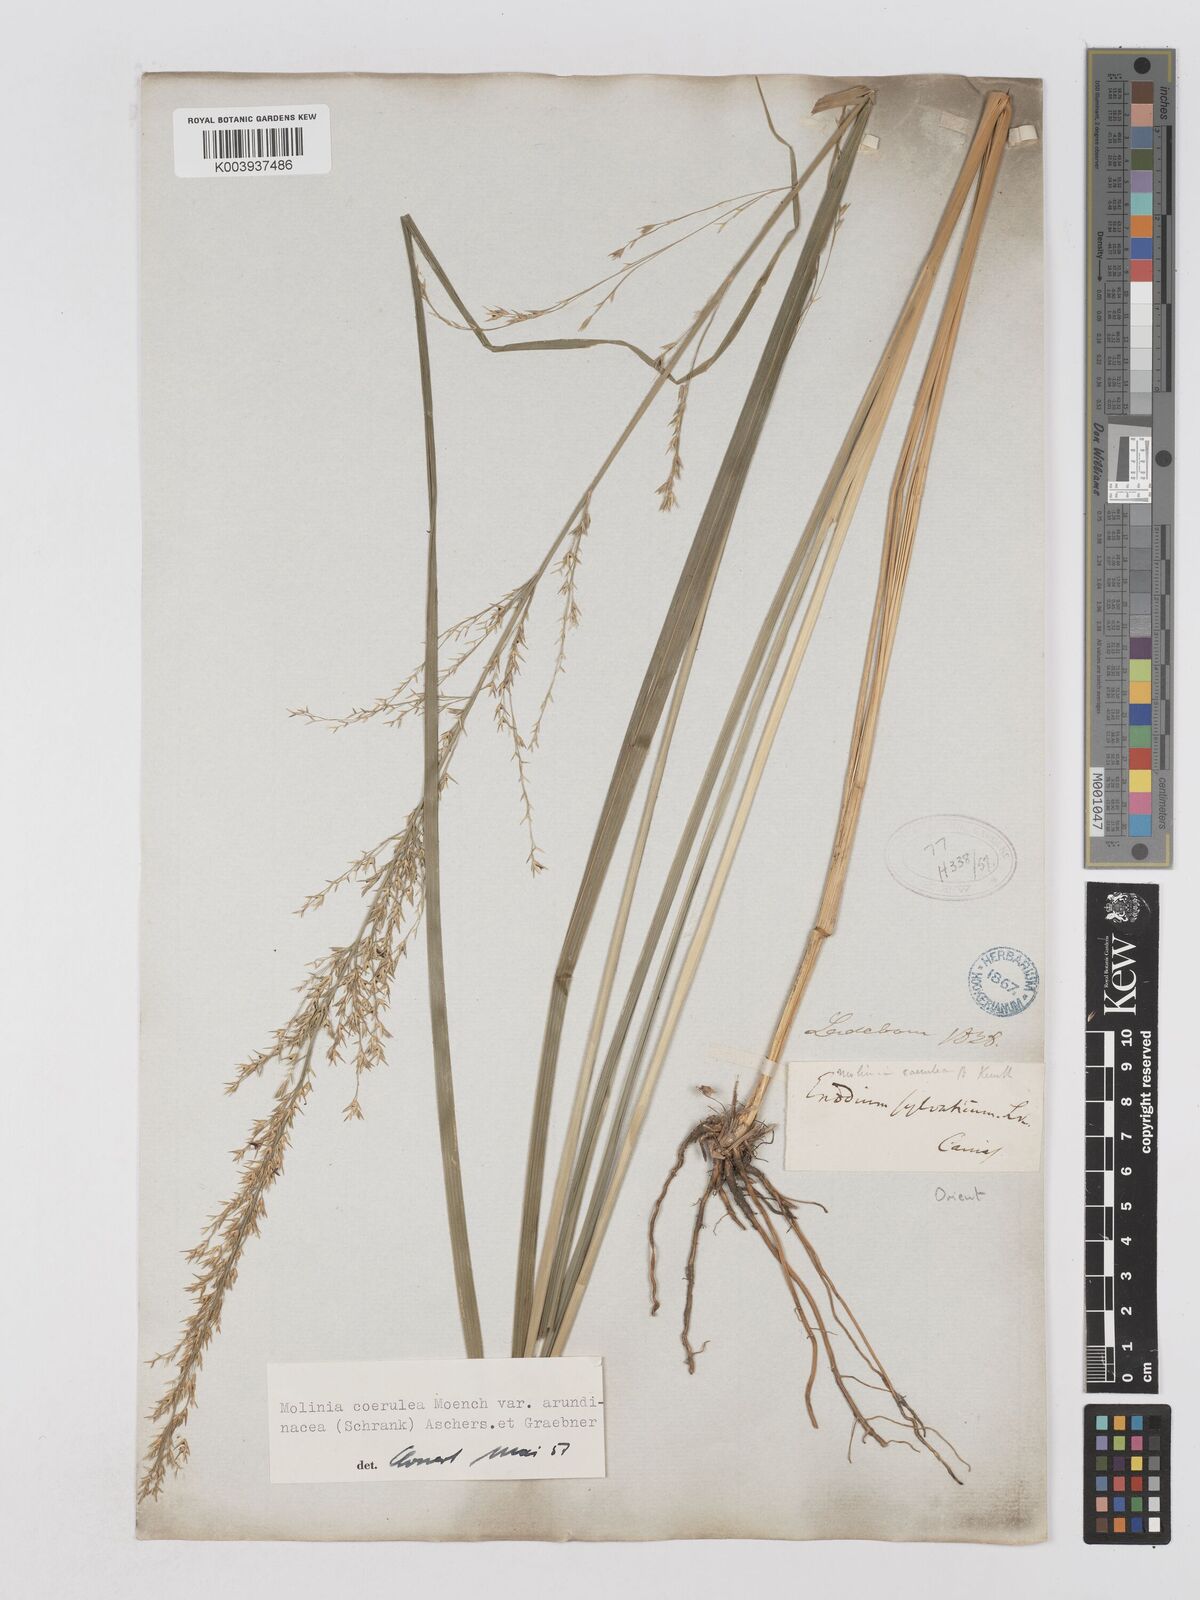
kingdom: Plantae
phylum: Tracheophyta
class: Liliopsida
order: Poales
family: Poaceae
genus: Molinia
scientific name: Molinia caerulea
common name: Purple moor-grass
